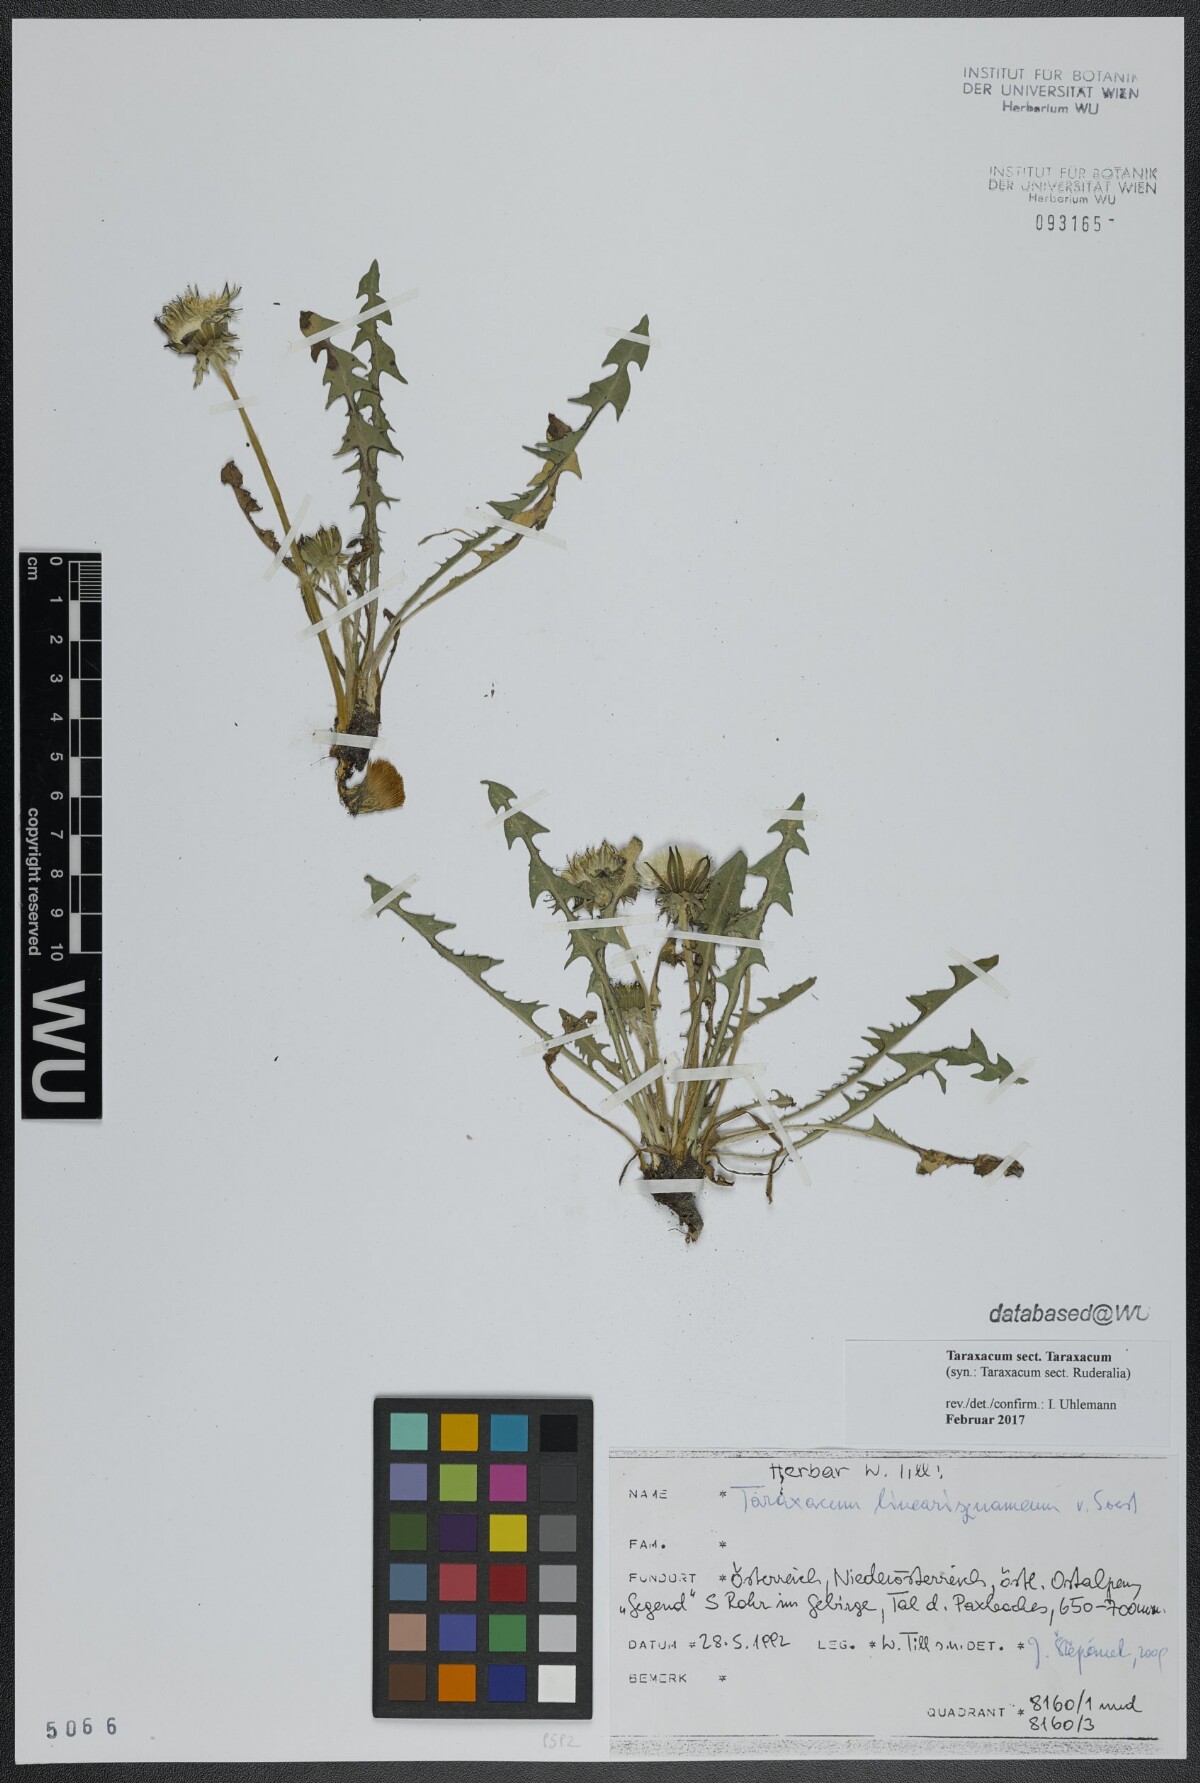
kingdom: Plantae
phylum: Tracheophyta
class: Magnoliopsida
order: Asterales
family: Asteraceae
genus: Taraxacum
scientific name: Taraxacum
